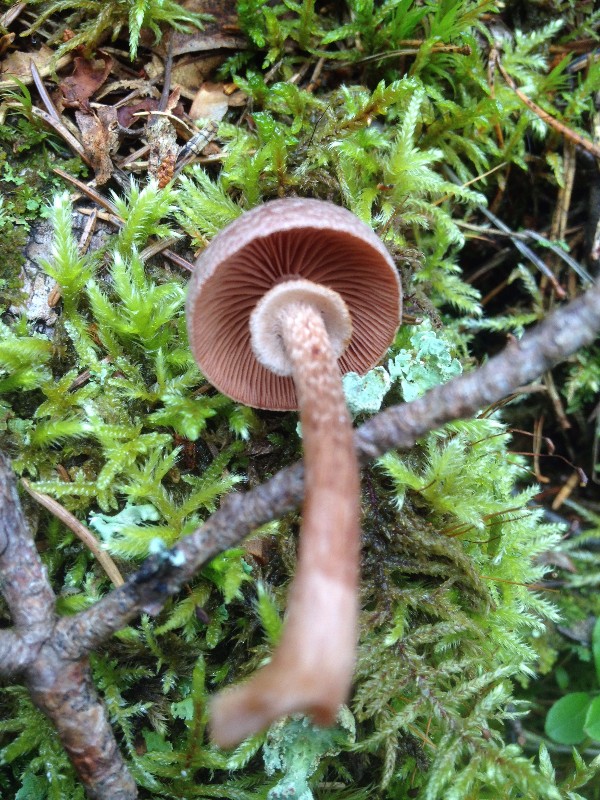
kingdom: Fungi
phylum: Basidiomycota
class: Agaricomycetes
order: Agaricales
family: Tubariaceae
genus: Tubaria
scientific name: Tubaria confragosa
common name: ring-fnughat
